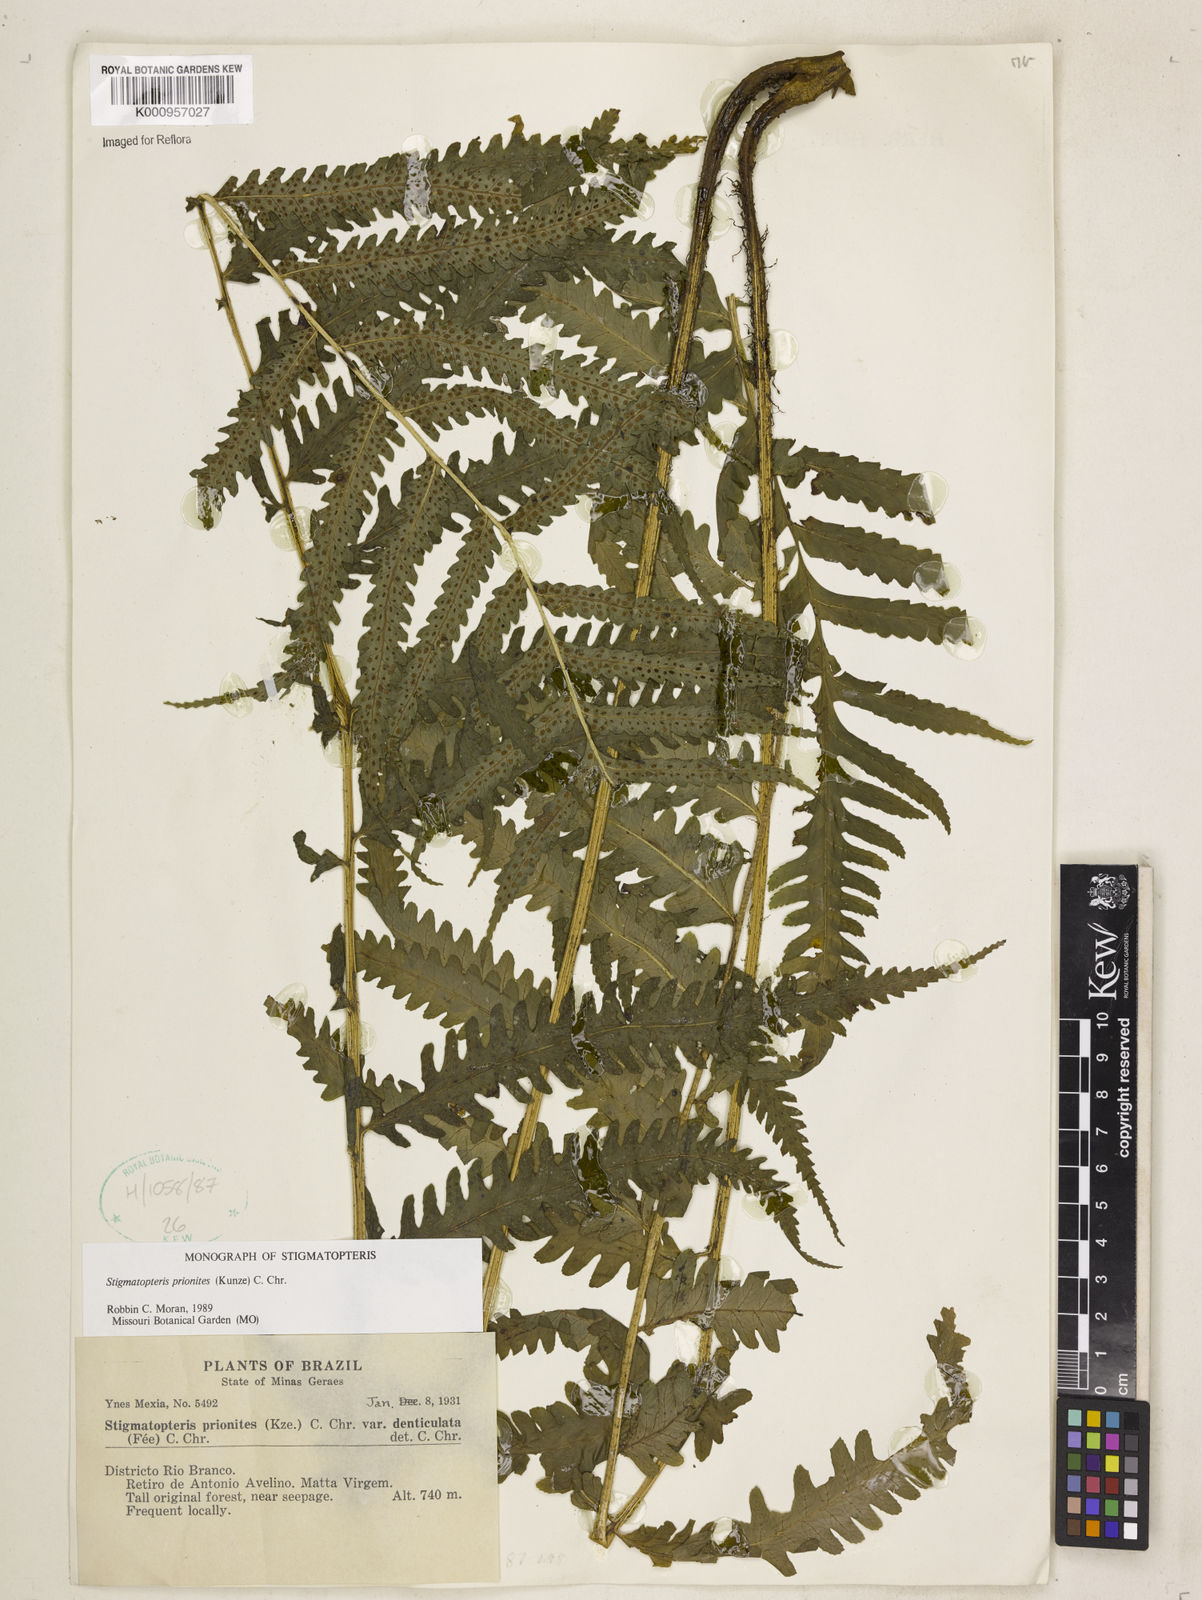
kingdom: Plantae
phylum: Tracheophyta
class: Polypodiopsida
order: Polypodiales
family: Dryopteridaceae
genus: Stigmatopteris
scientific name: Stigmatopteris prionites
